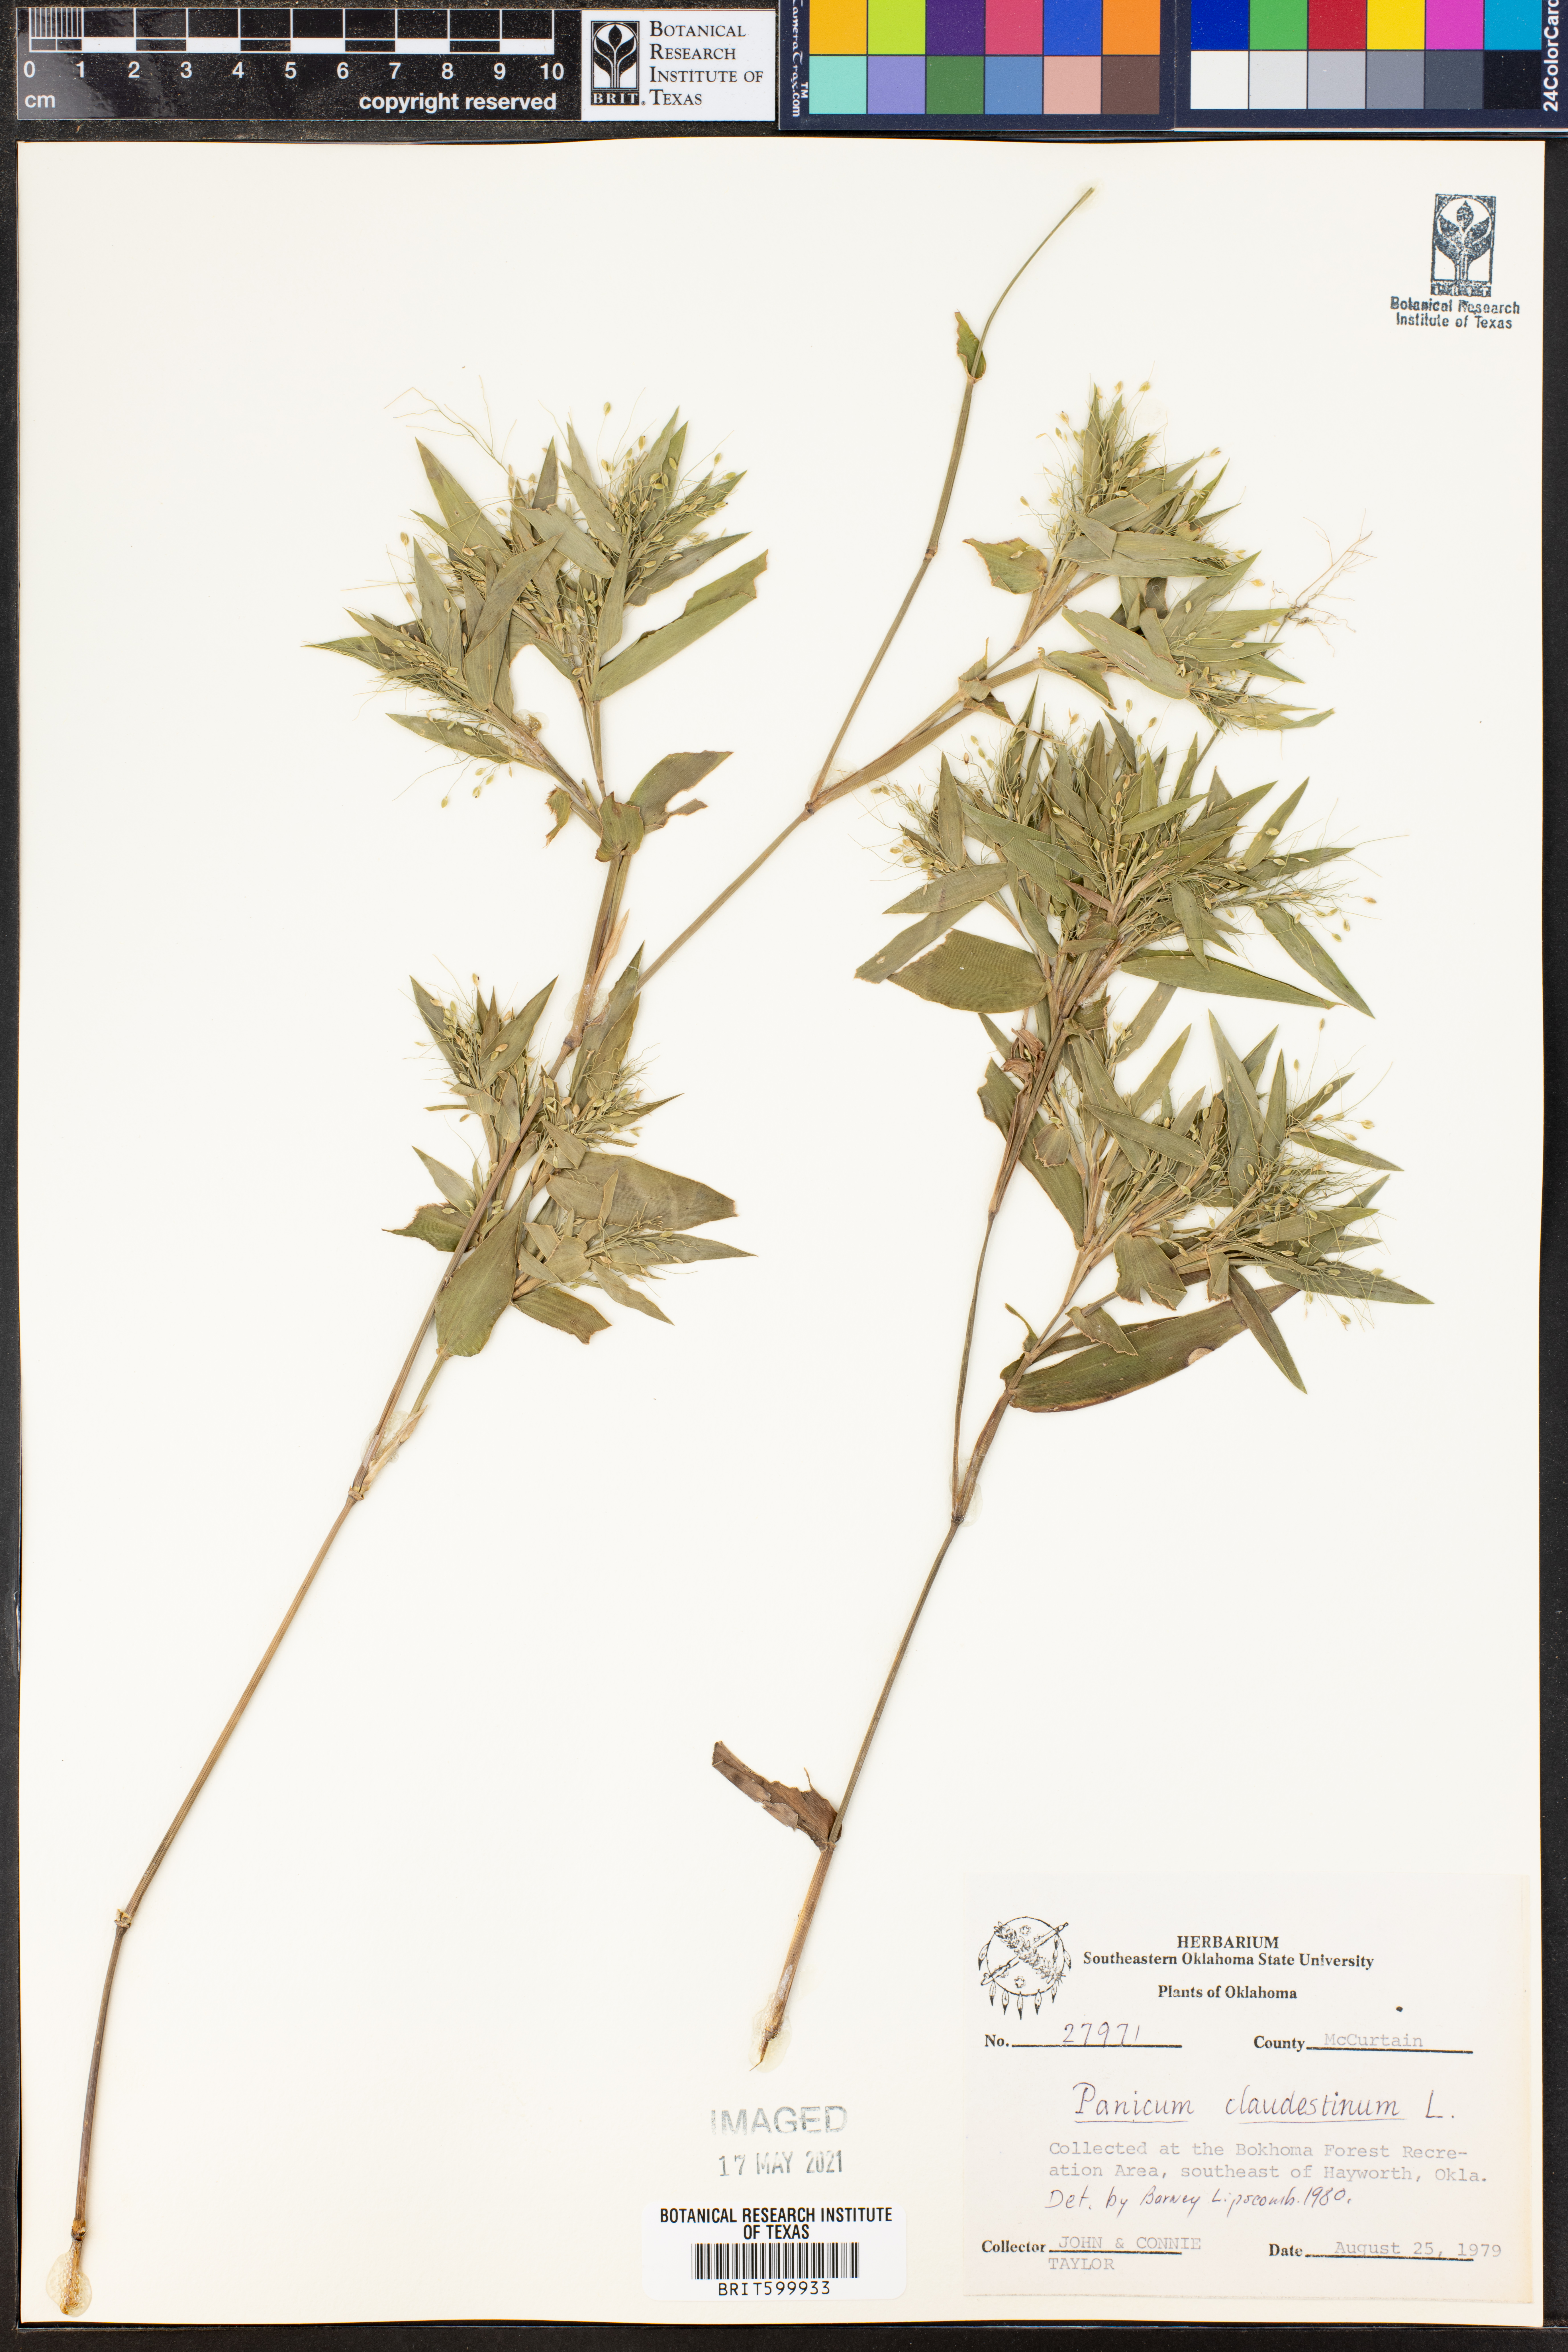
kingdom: Plantae
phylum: Tracheophyta
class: Liliopsida
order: Poales
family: Poaceae
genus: Dichanthelium
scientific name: Dichanthelium clandestinum
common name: Deer-tongue grass
